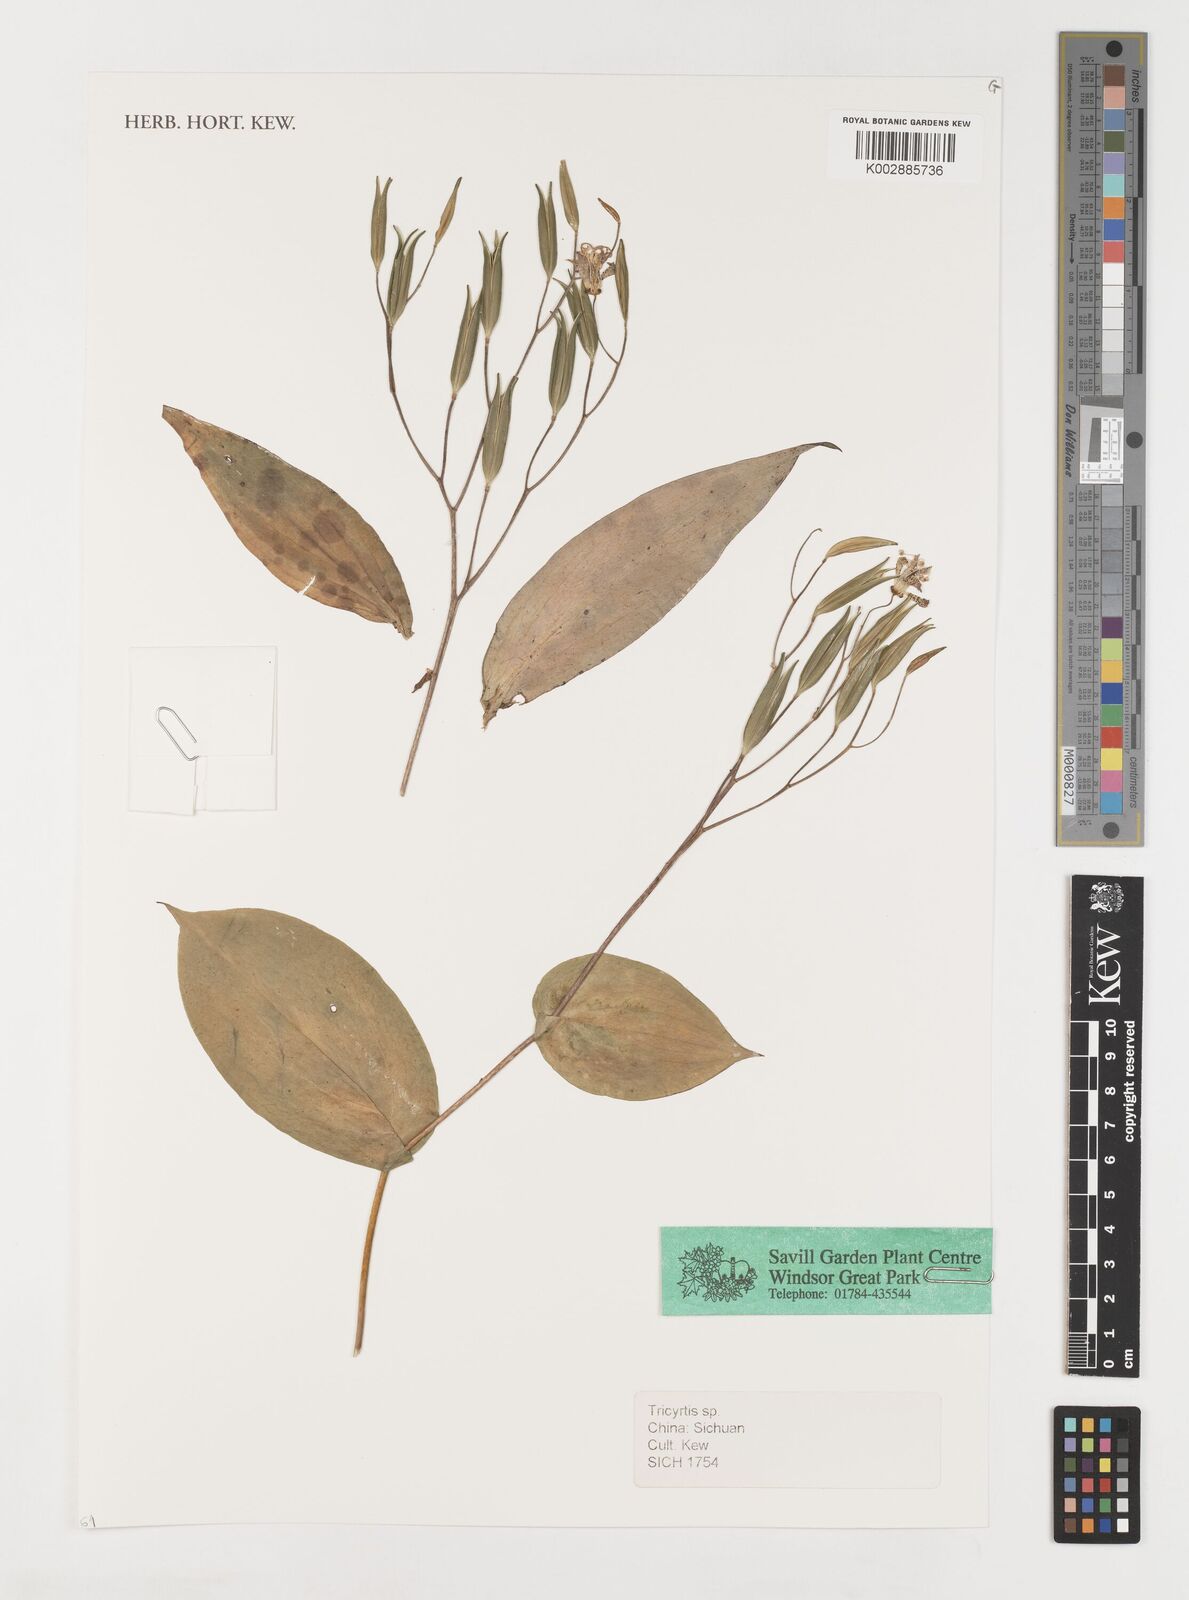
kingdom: Plantae
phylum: Tracheophyta
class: Liliopsida
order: Liliales
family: Liliaceae
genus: Tricyrtis
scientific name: Tricyrtis
